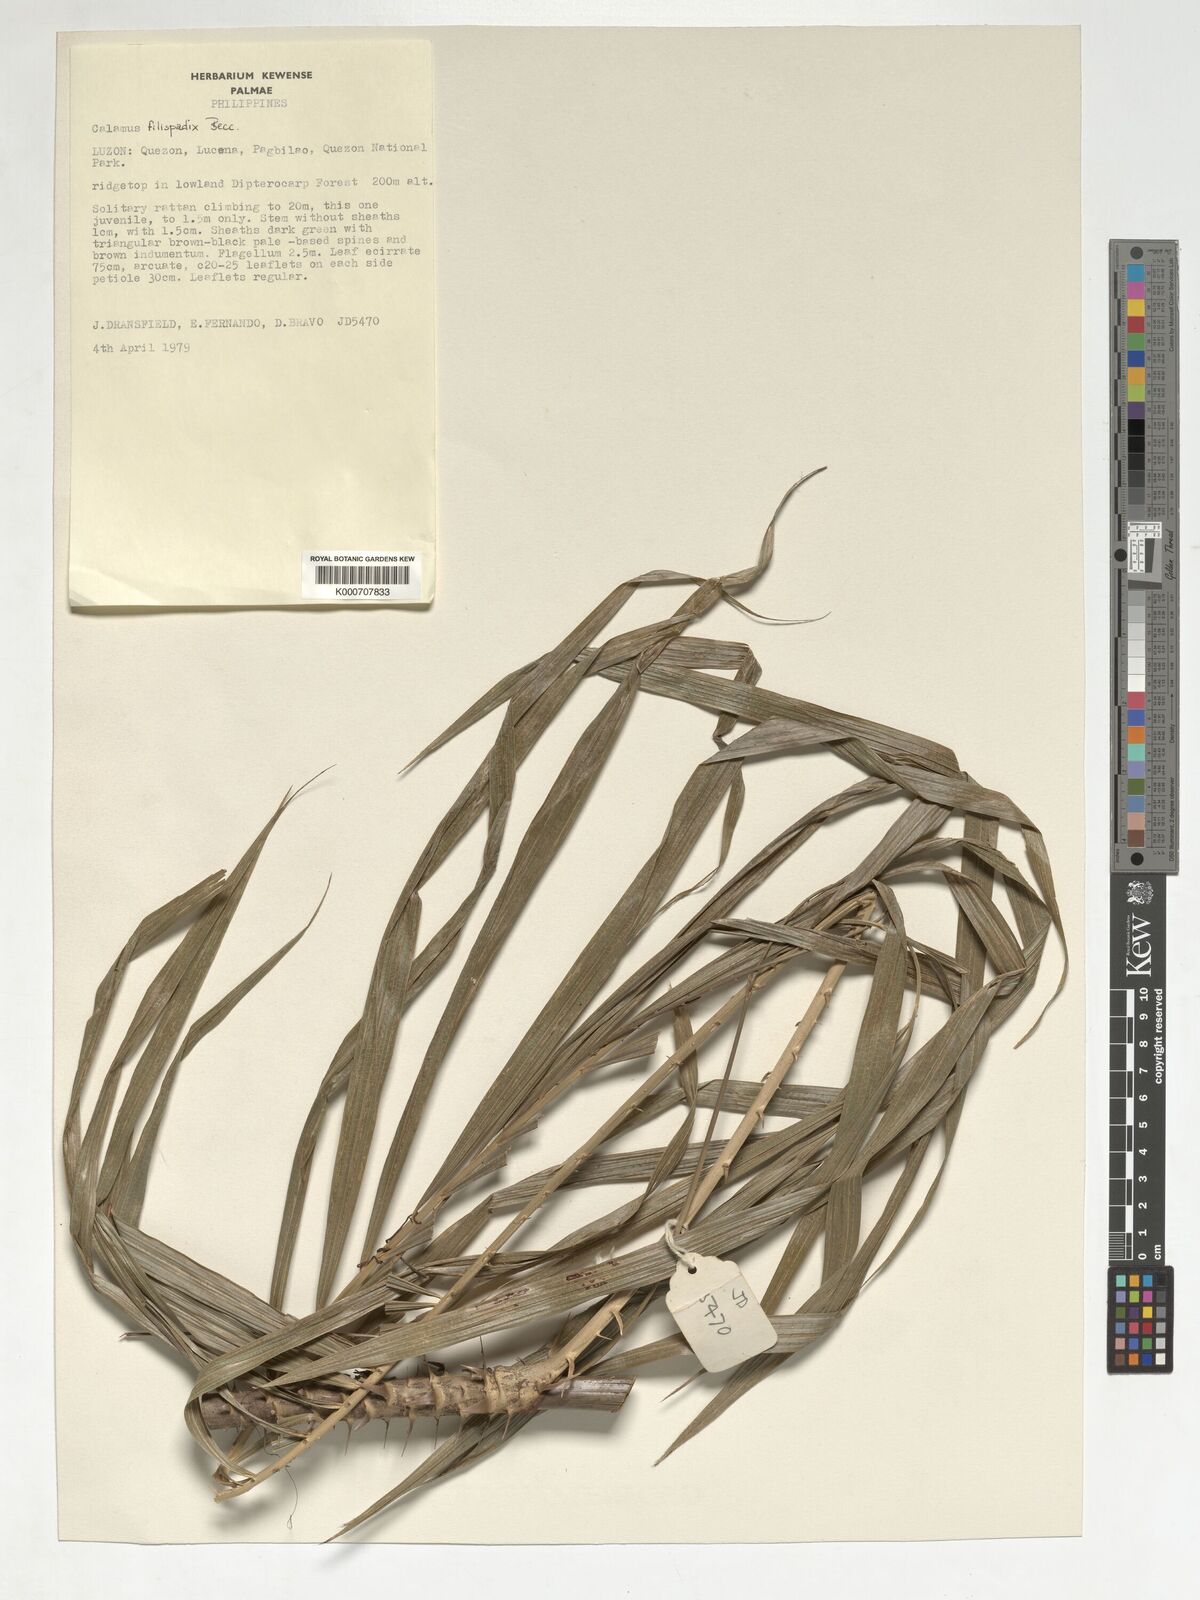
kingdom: Plantae
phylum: Tracheophyta
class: Liliopsida
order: Arecales
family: Arecaceae
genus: Calamus
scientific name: Calamus filispadix
